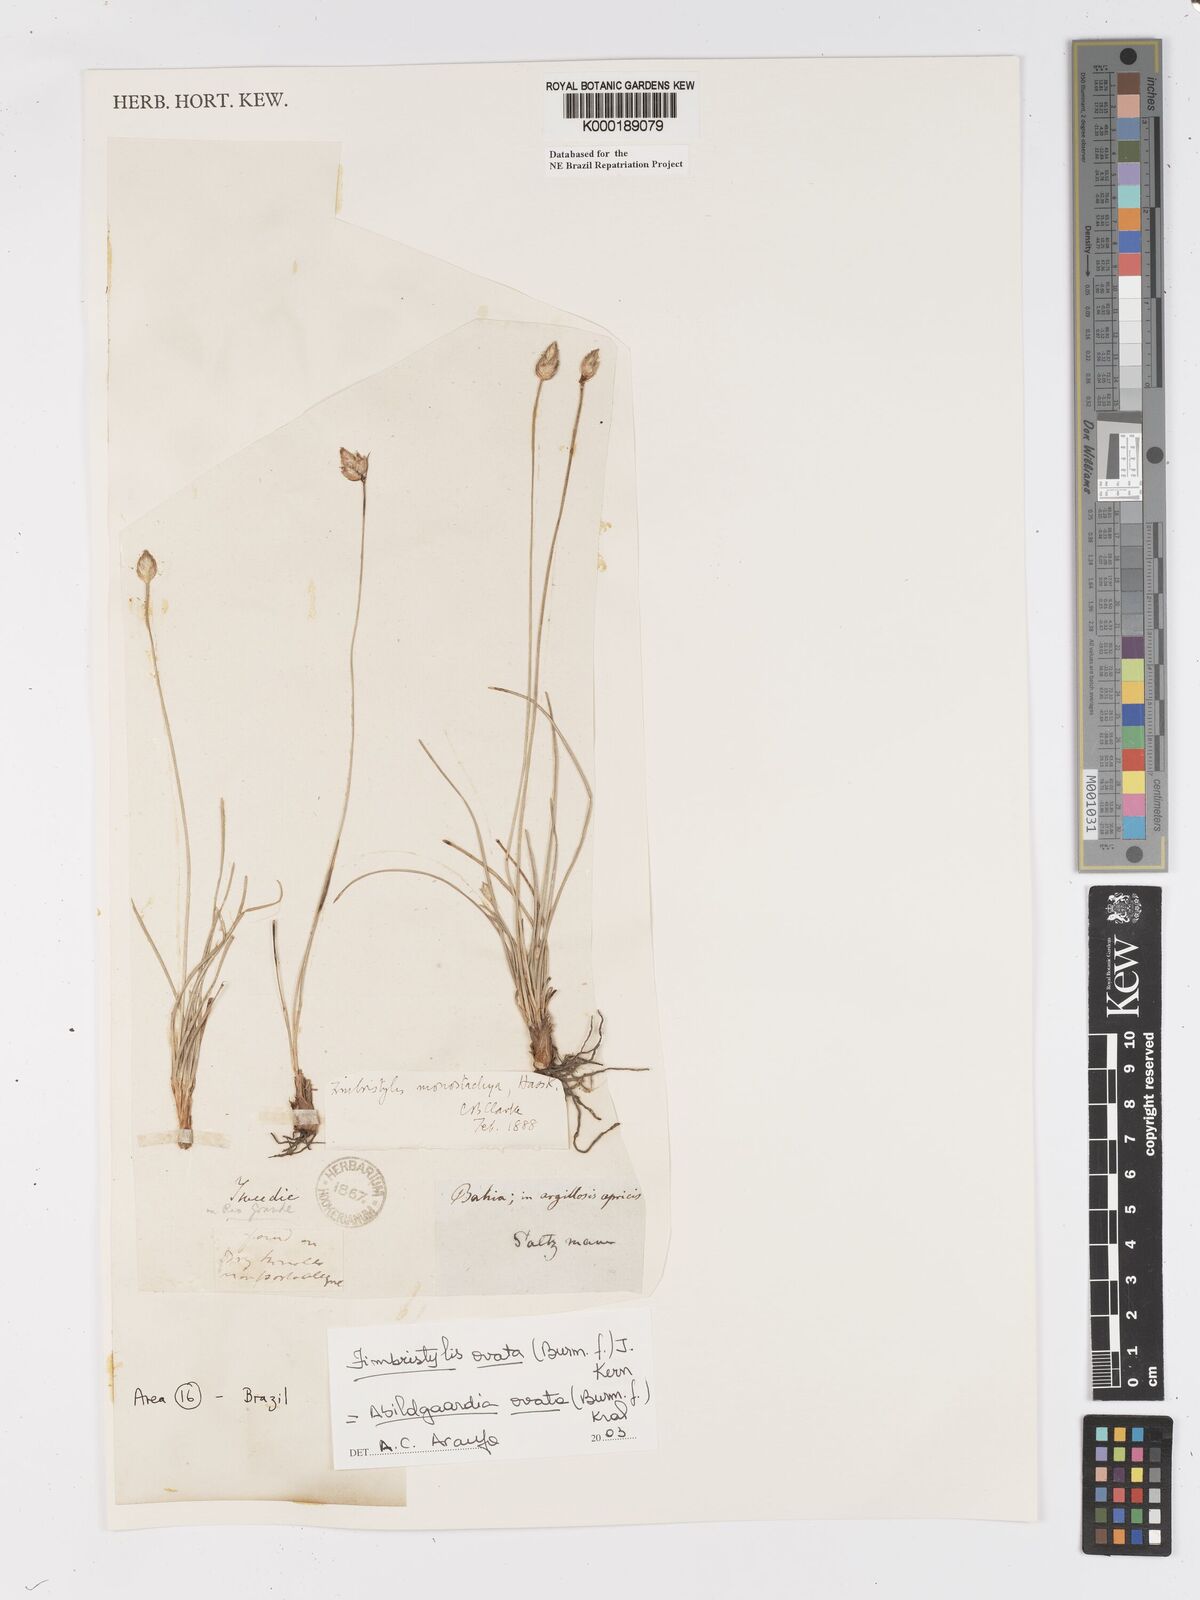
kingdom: Plantae
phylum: Tracheophyta
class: Liliopsida
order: Poales
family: Cyperaceae
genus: Abildgaardia
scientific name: Abildgaardia ovata
